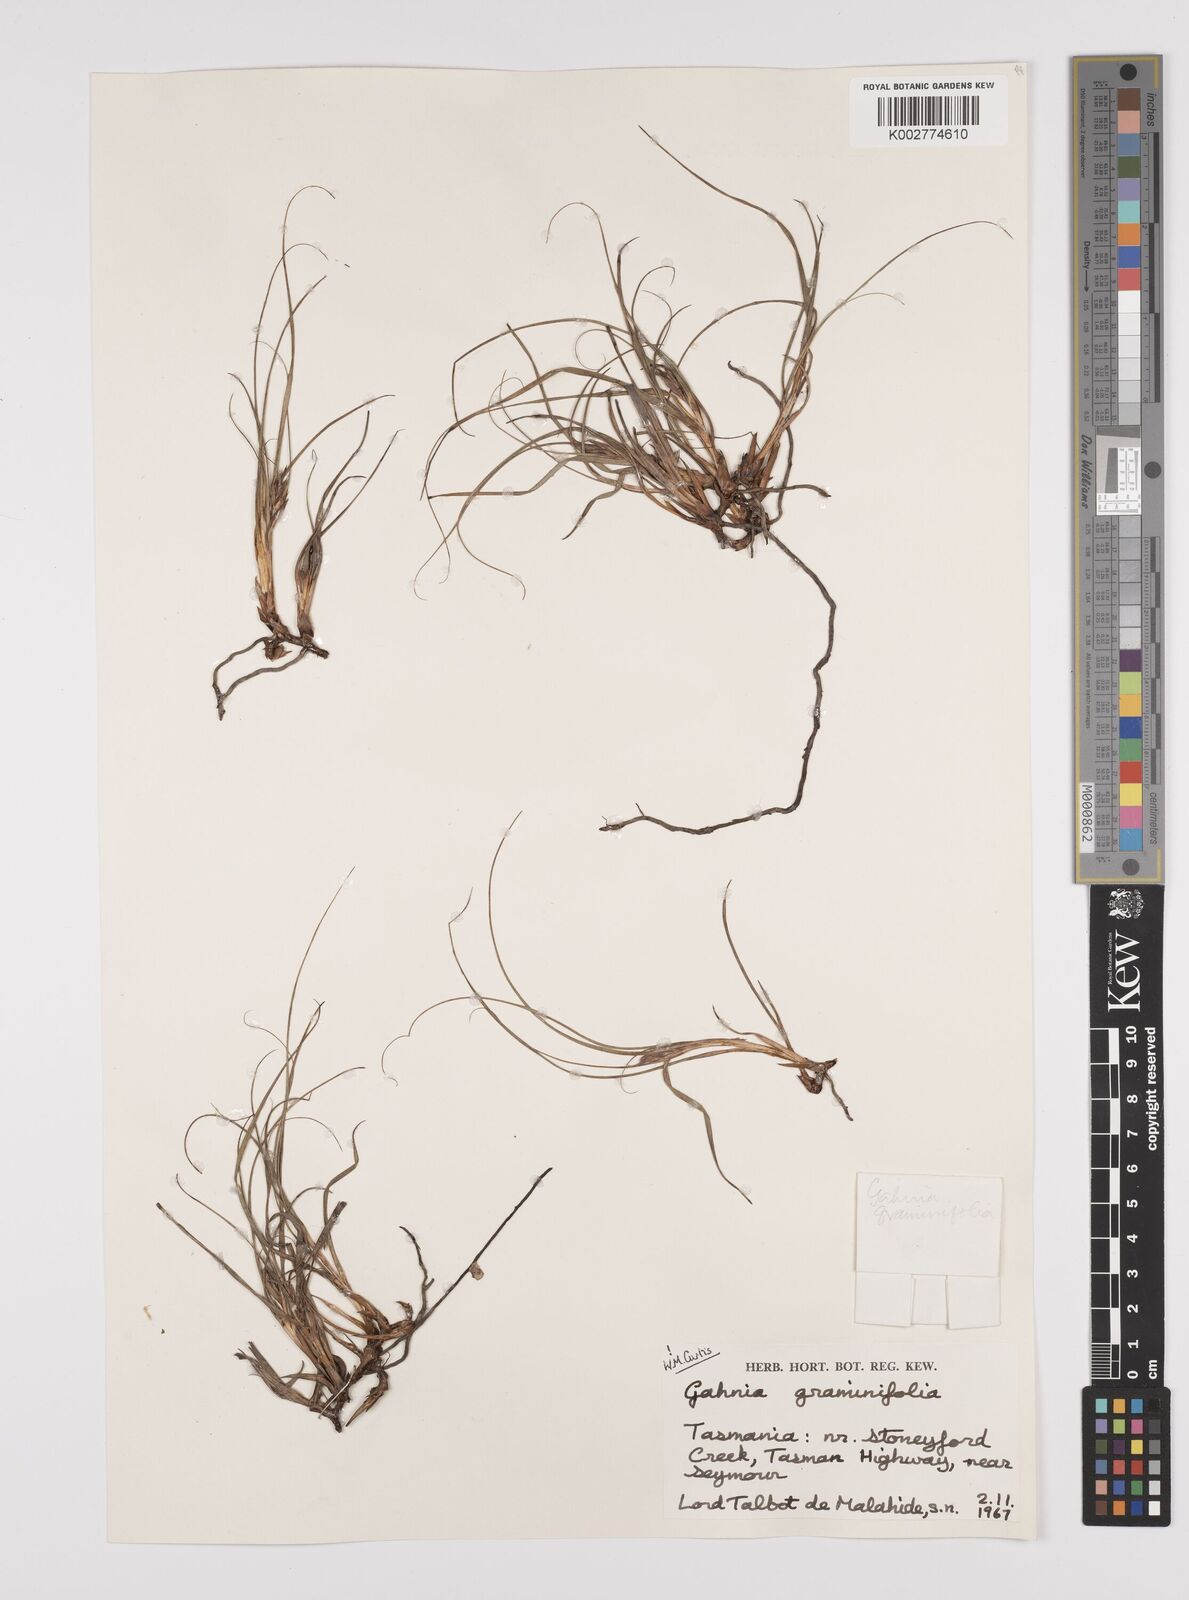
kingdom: Plantae
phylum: Tracheophyta
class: Liliopsida
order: Poales
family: Cyperaceae
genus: Gahnia
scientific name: Gahnia rodwayi
